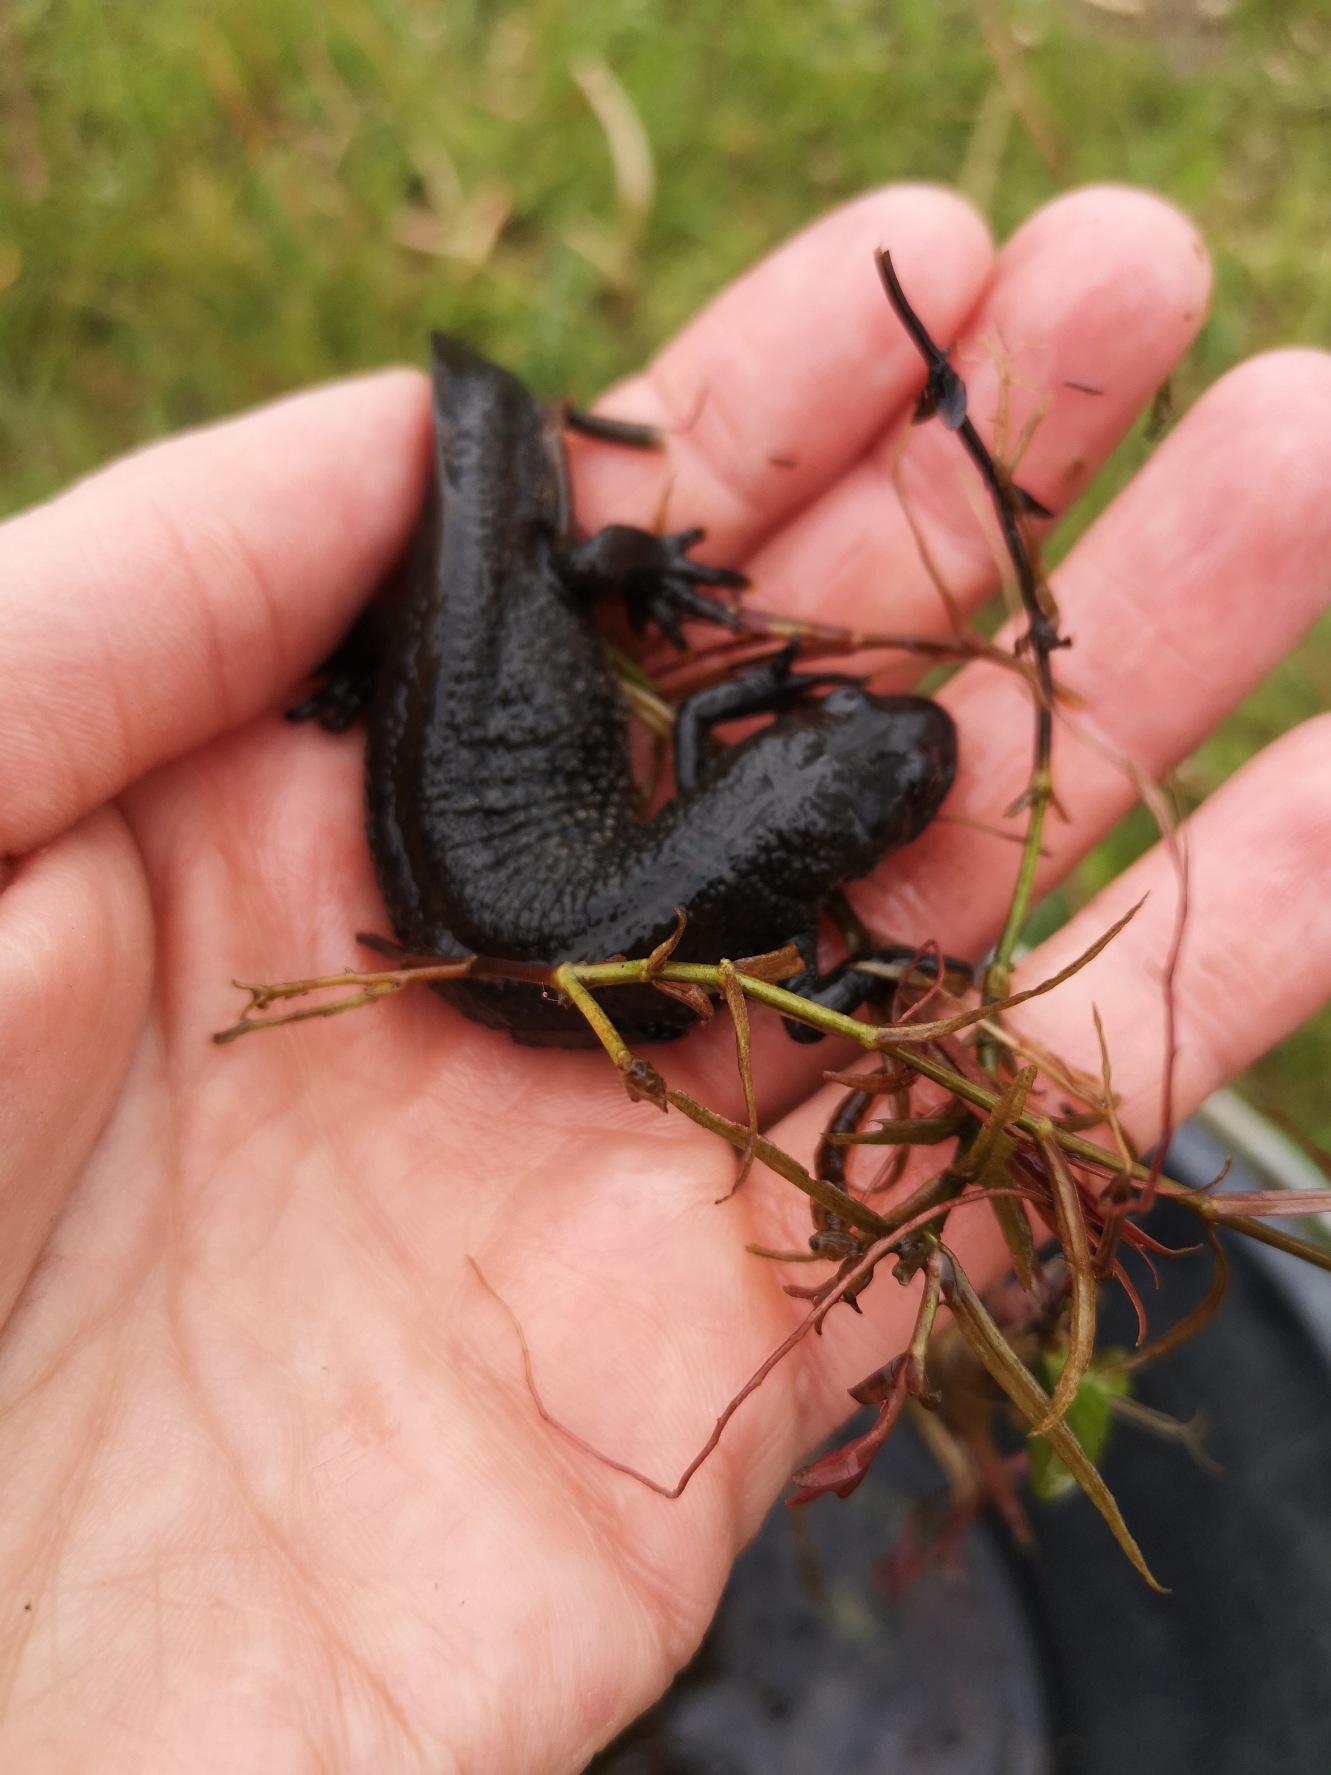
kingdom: Animalia
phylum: Chordata
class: Amphibia
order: Caudata
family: Salamandridae
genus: Triturus
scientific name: Triturus cristatus
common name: Stor vandsalamander
